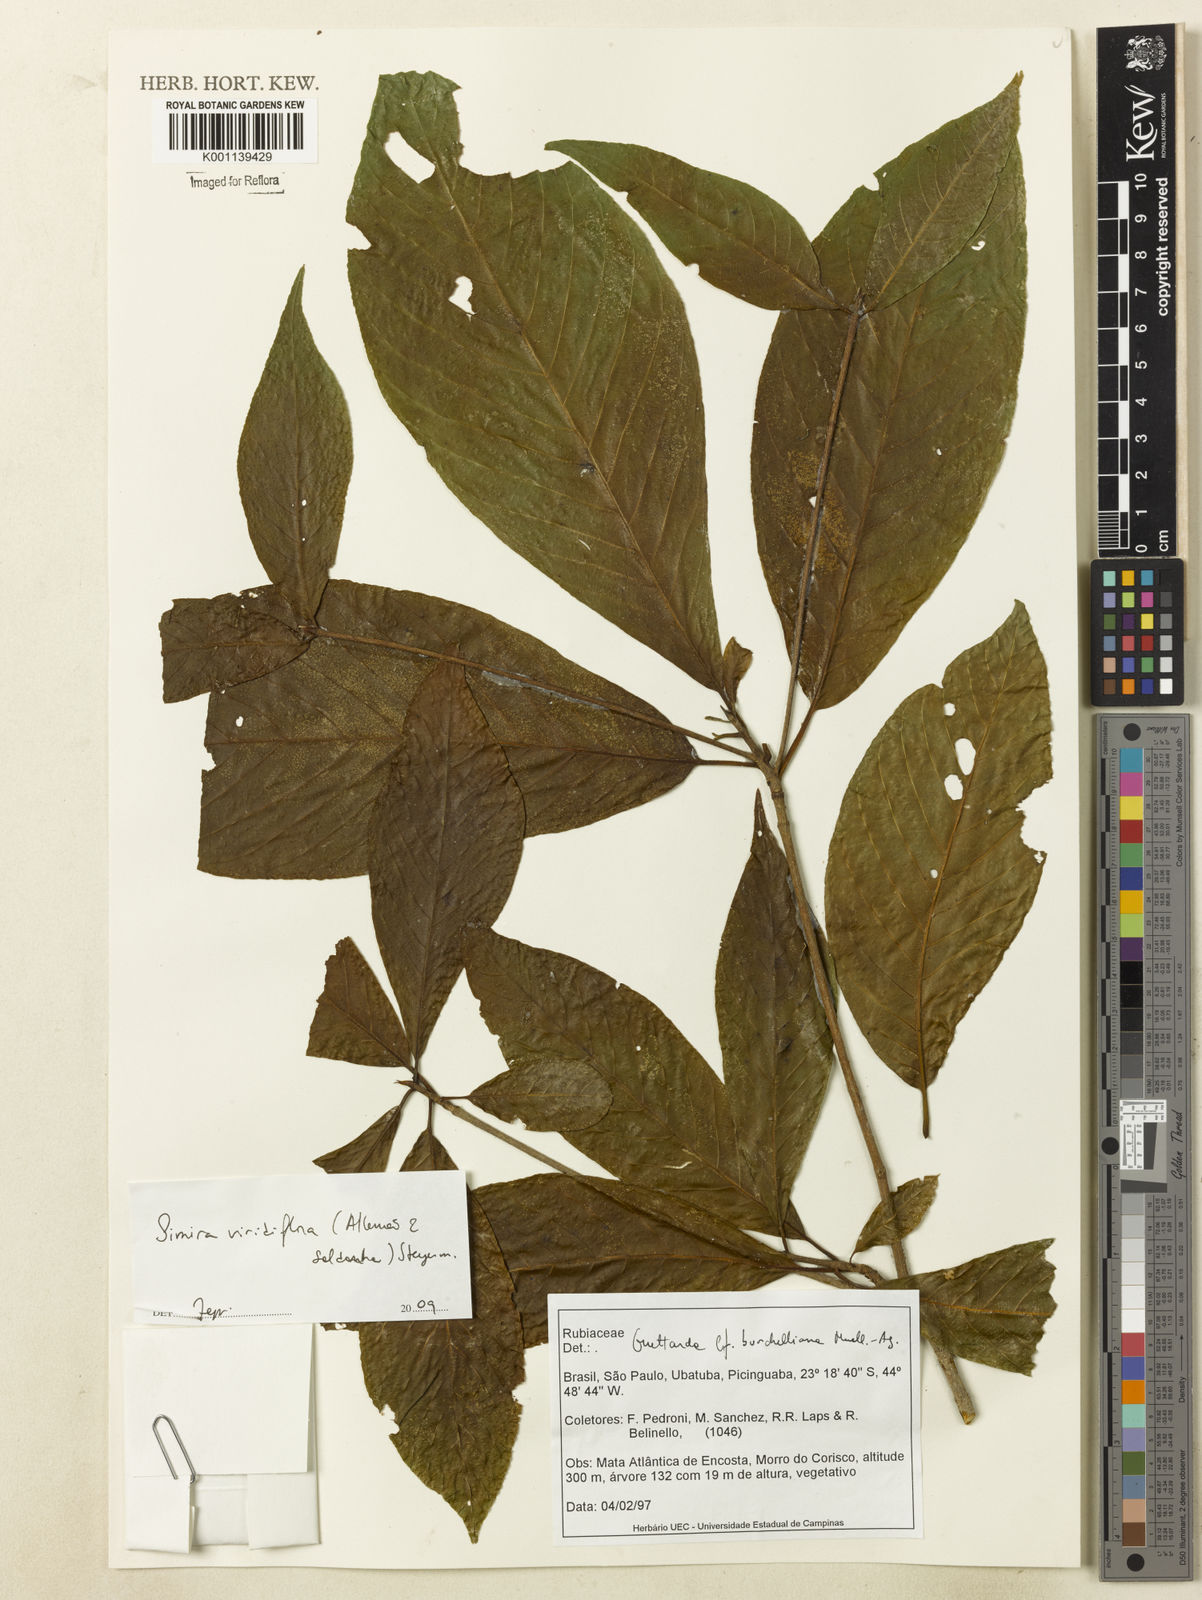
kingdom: Plantae
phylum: Tracheophyta
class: Magnoliopsida
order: Gentianales
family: Rubiaceae
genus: Simira
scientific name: Simira
